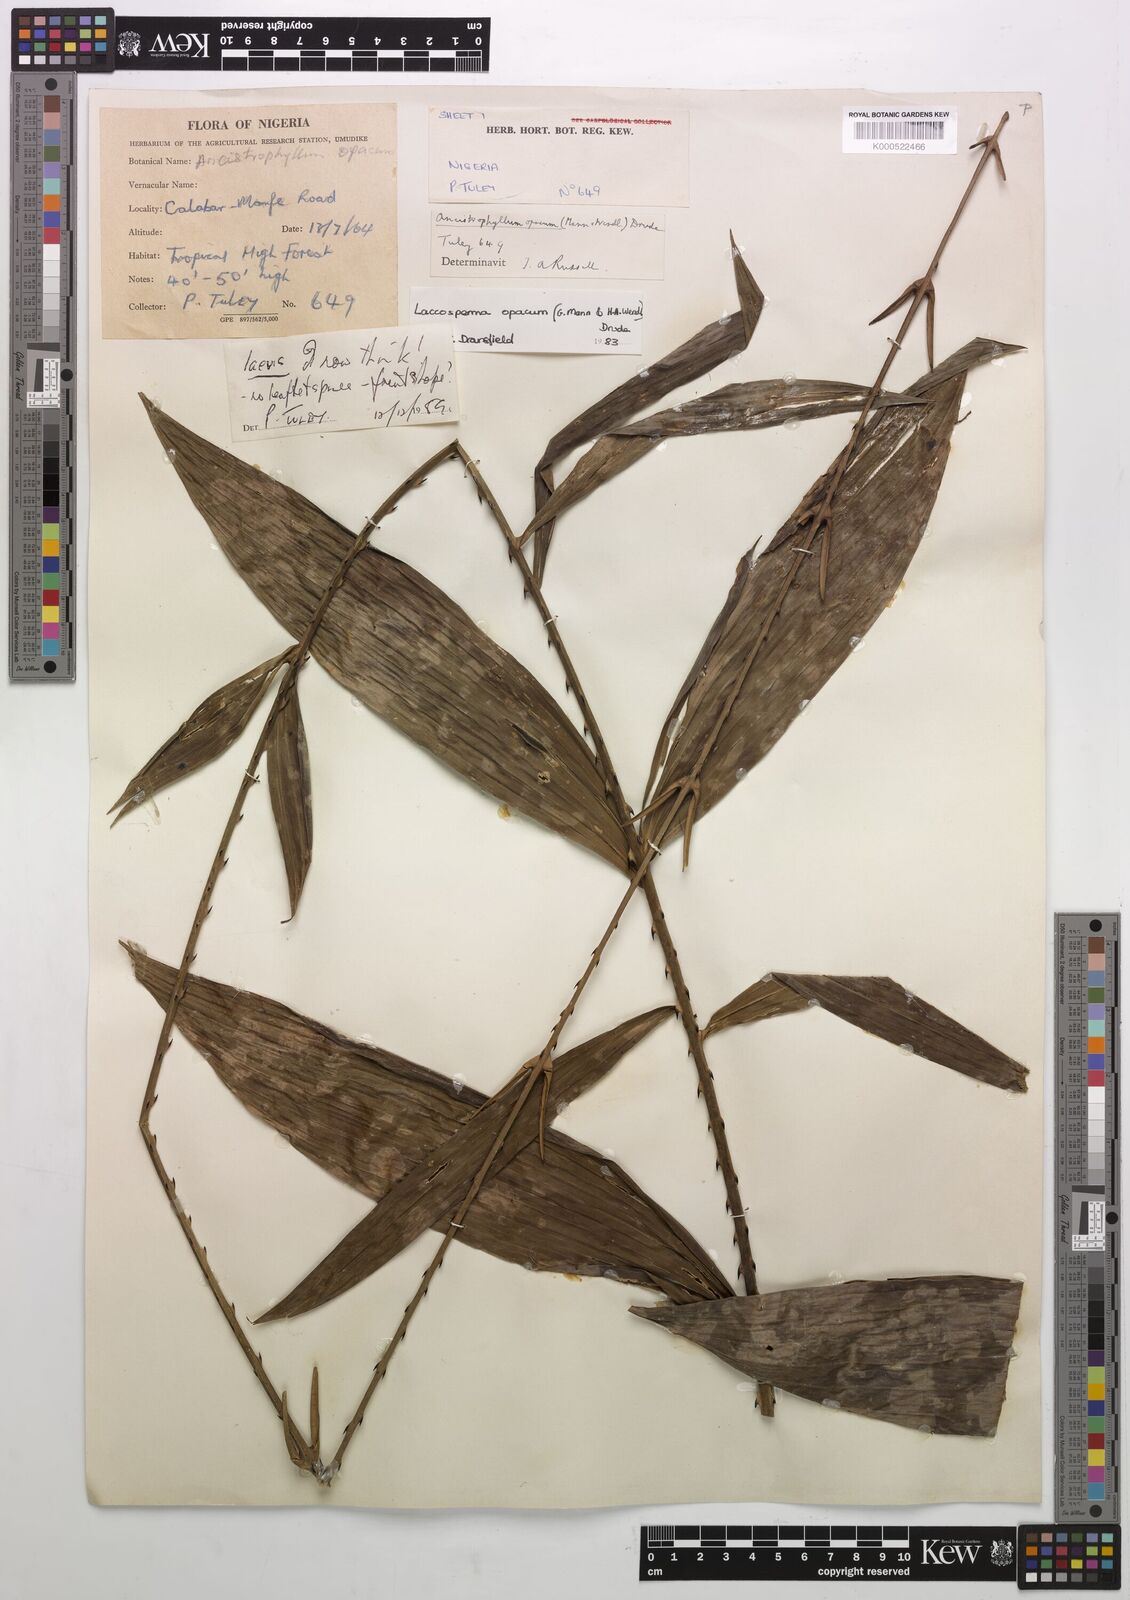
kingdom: Plantae
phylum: Tracheophyta
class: Liliopsida
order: Arecales
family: Arecaceae
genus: Laccosperma
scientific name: Laccosperma opacum
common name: Rattan
